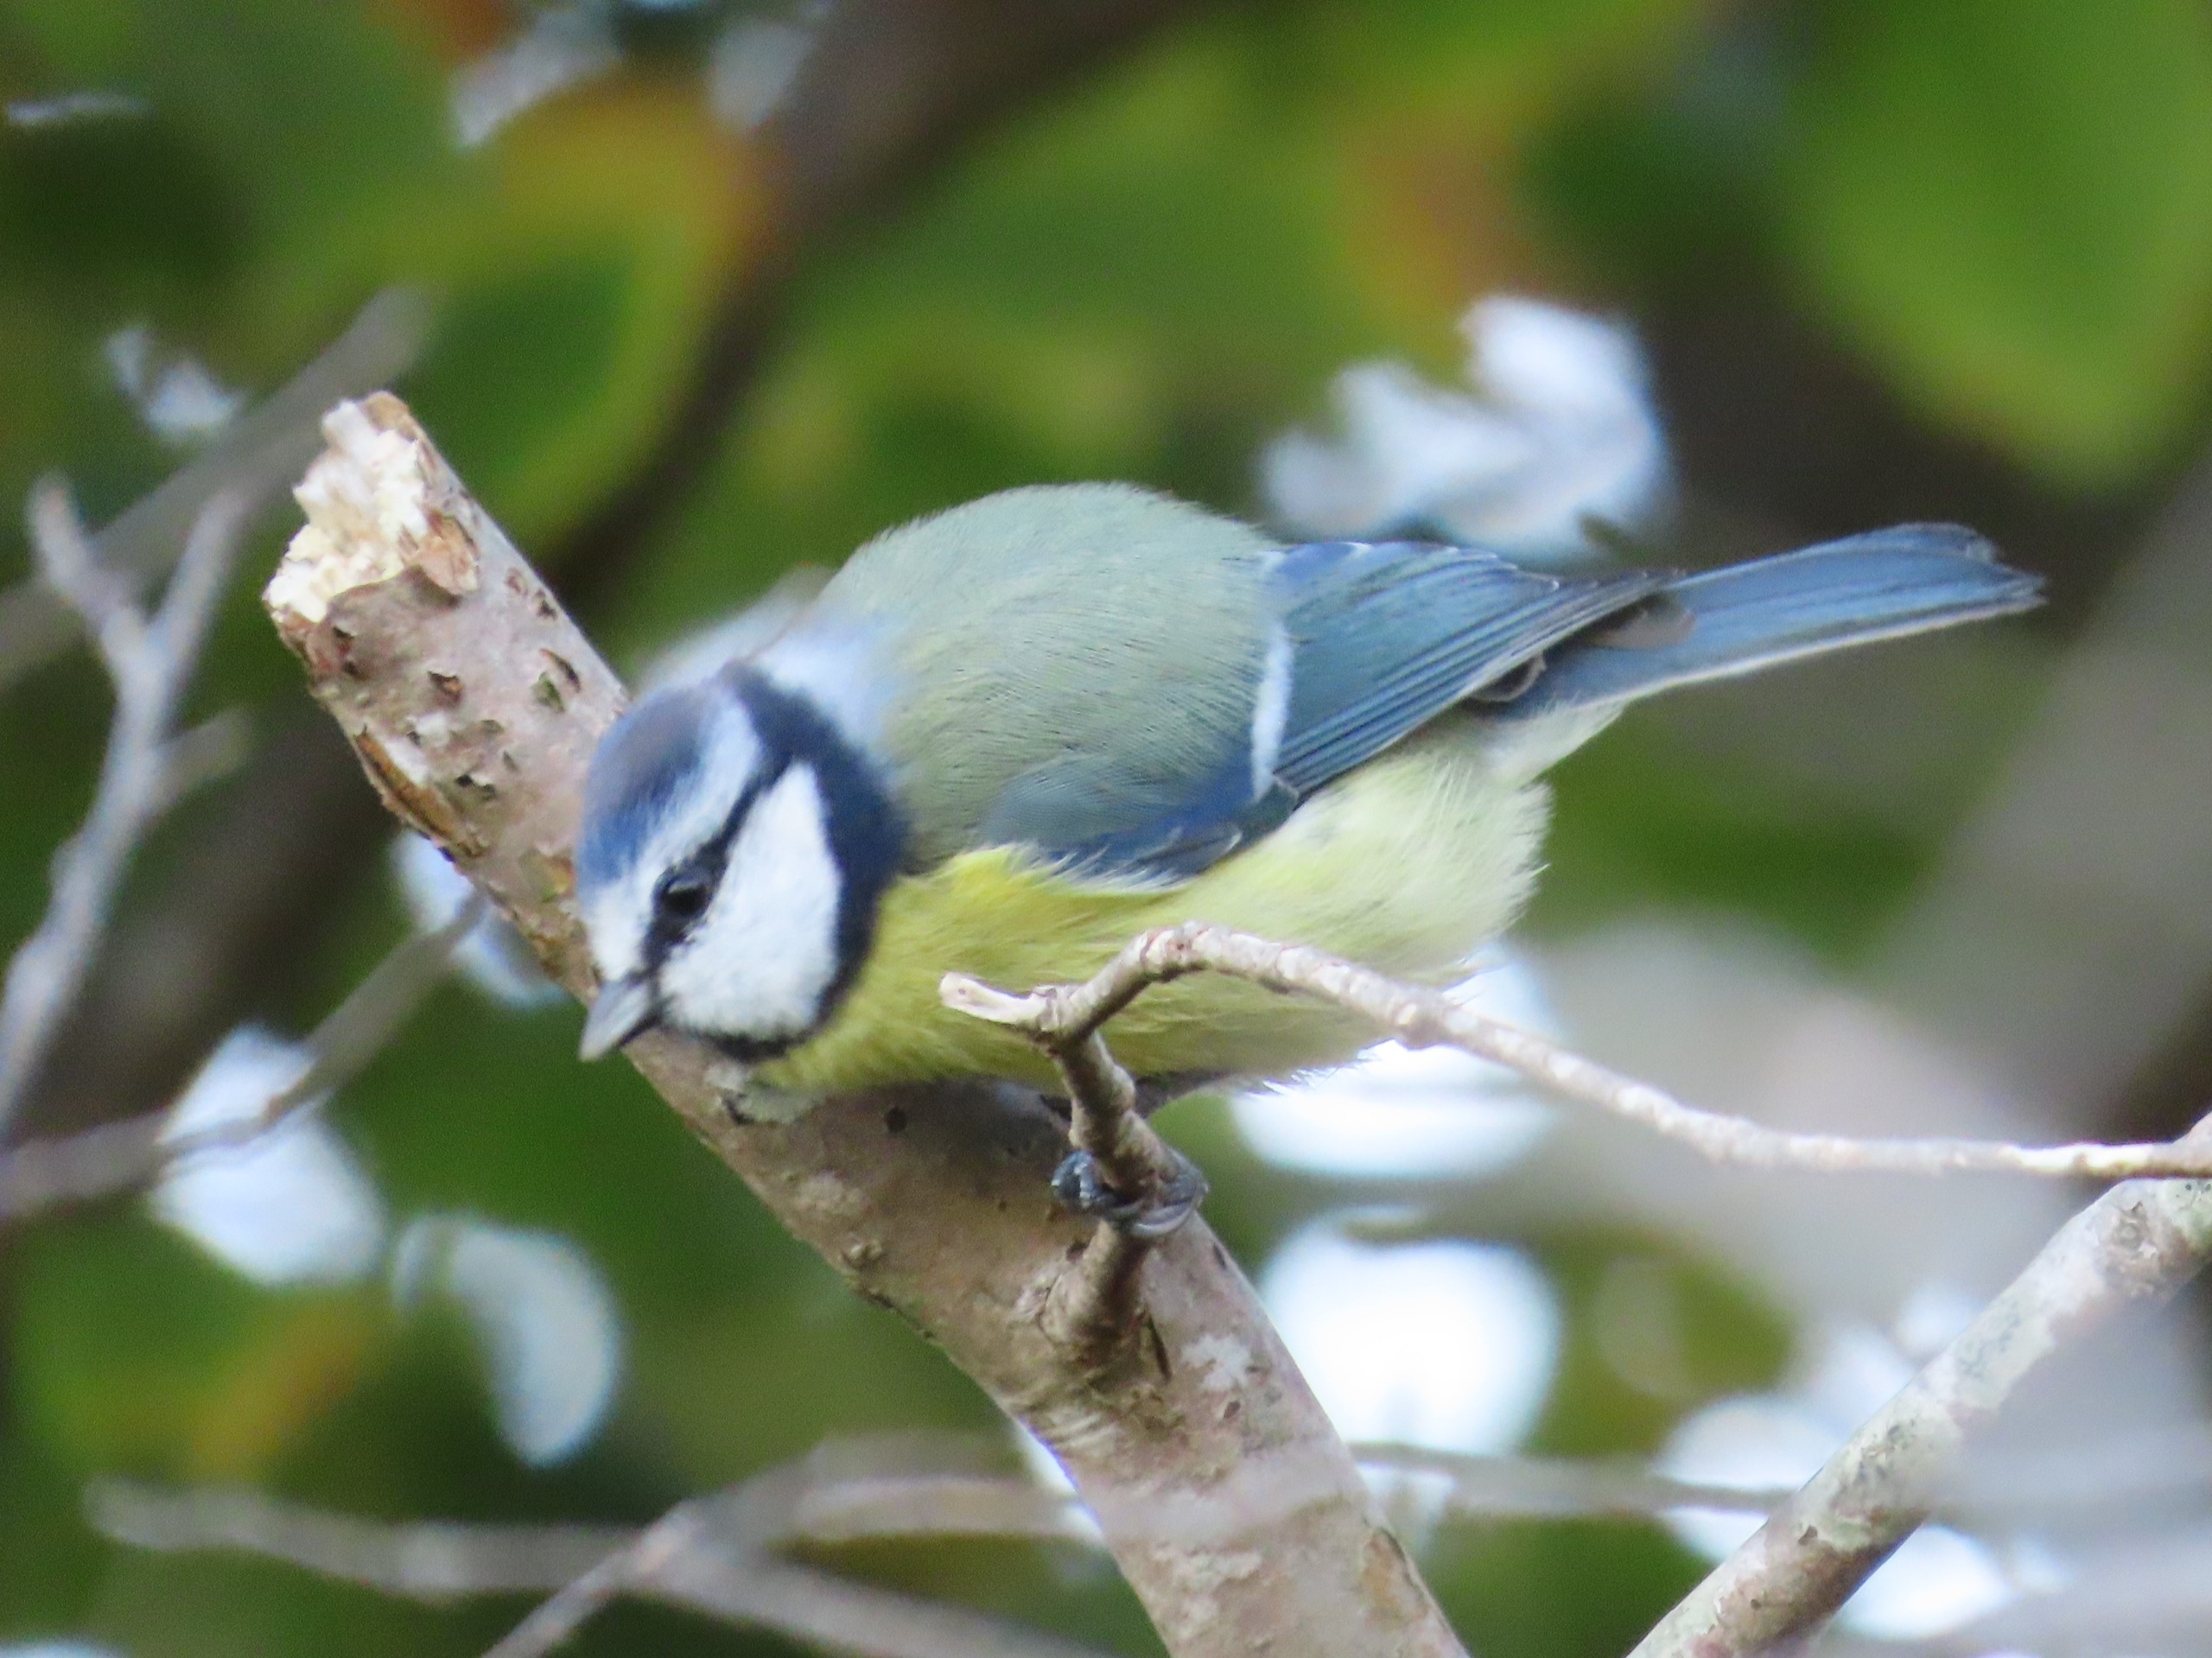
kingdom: Animalia
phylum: Chordata
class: Aves
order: Passeriformes
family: Paridae
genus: Cyanistes
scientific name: Cyanistes caeruleus
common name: Blåmejse
